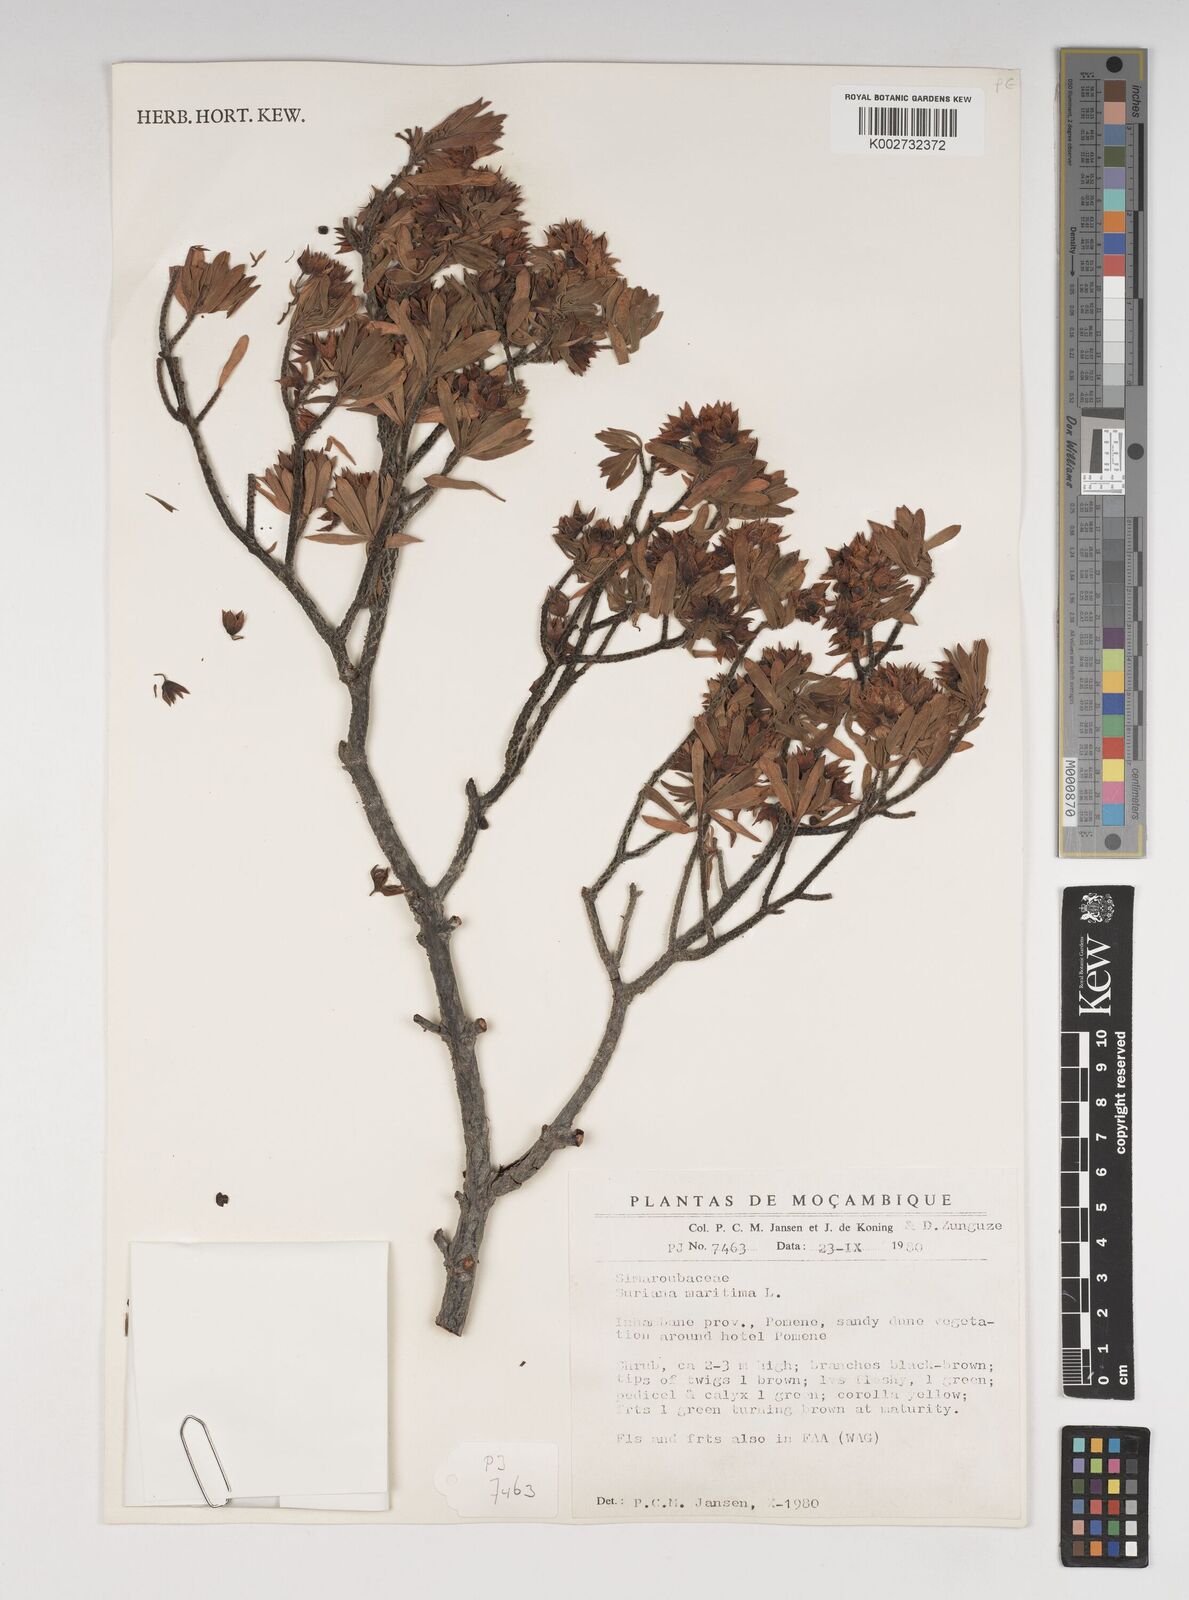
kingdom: Plantae
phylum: Tracheophyta
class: Magnoliopsida
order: Fabales
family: Surianaceae
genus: Suriana
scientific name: Suriana maritima
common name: Bay-cedar
